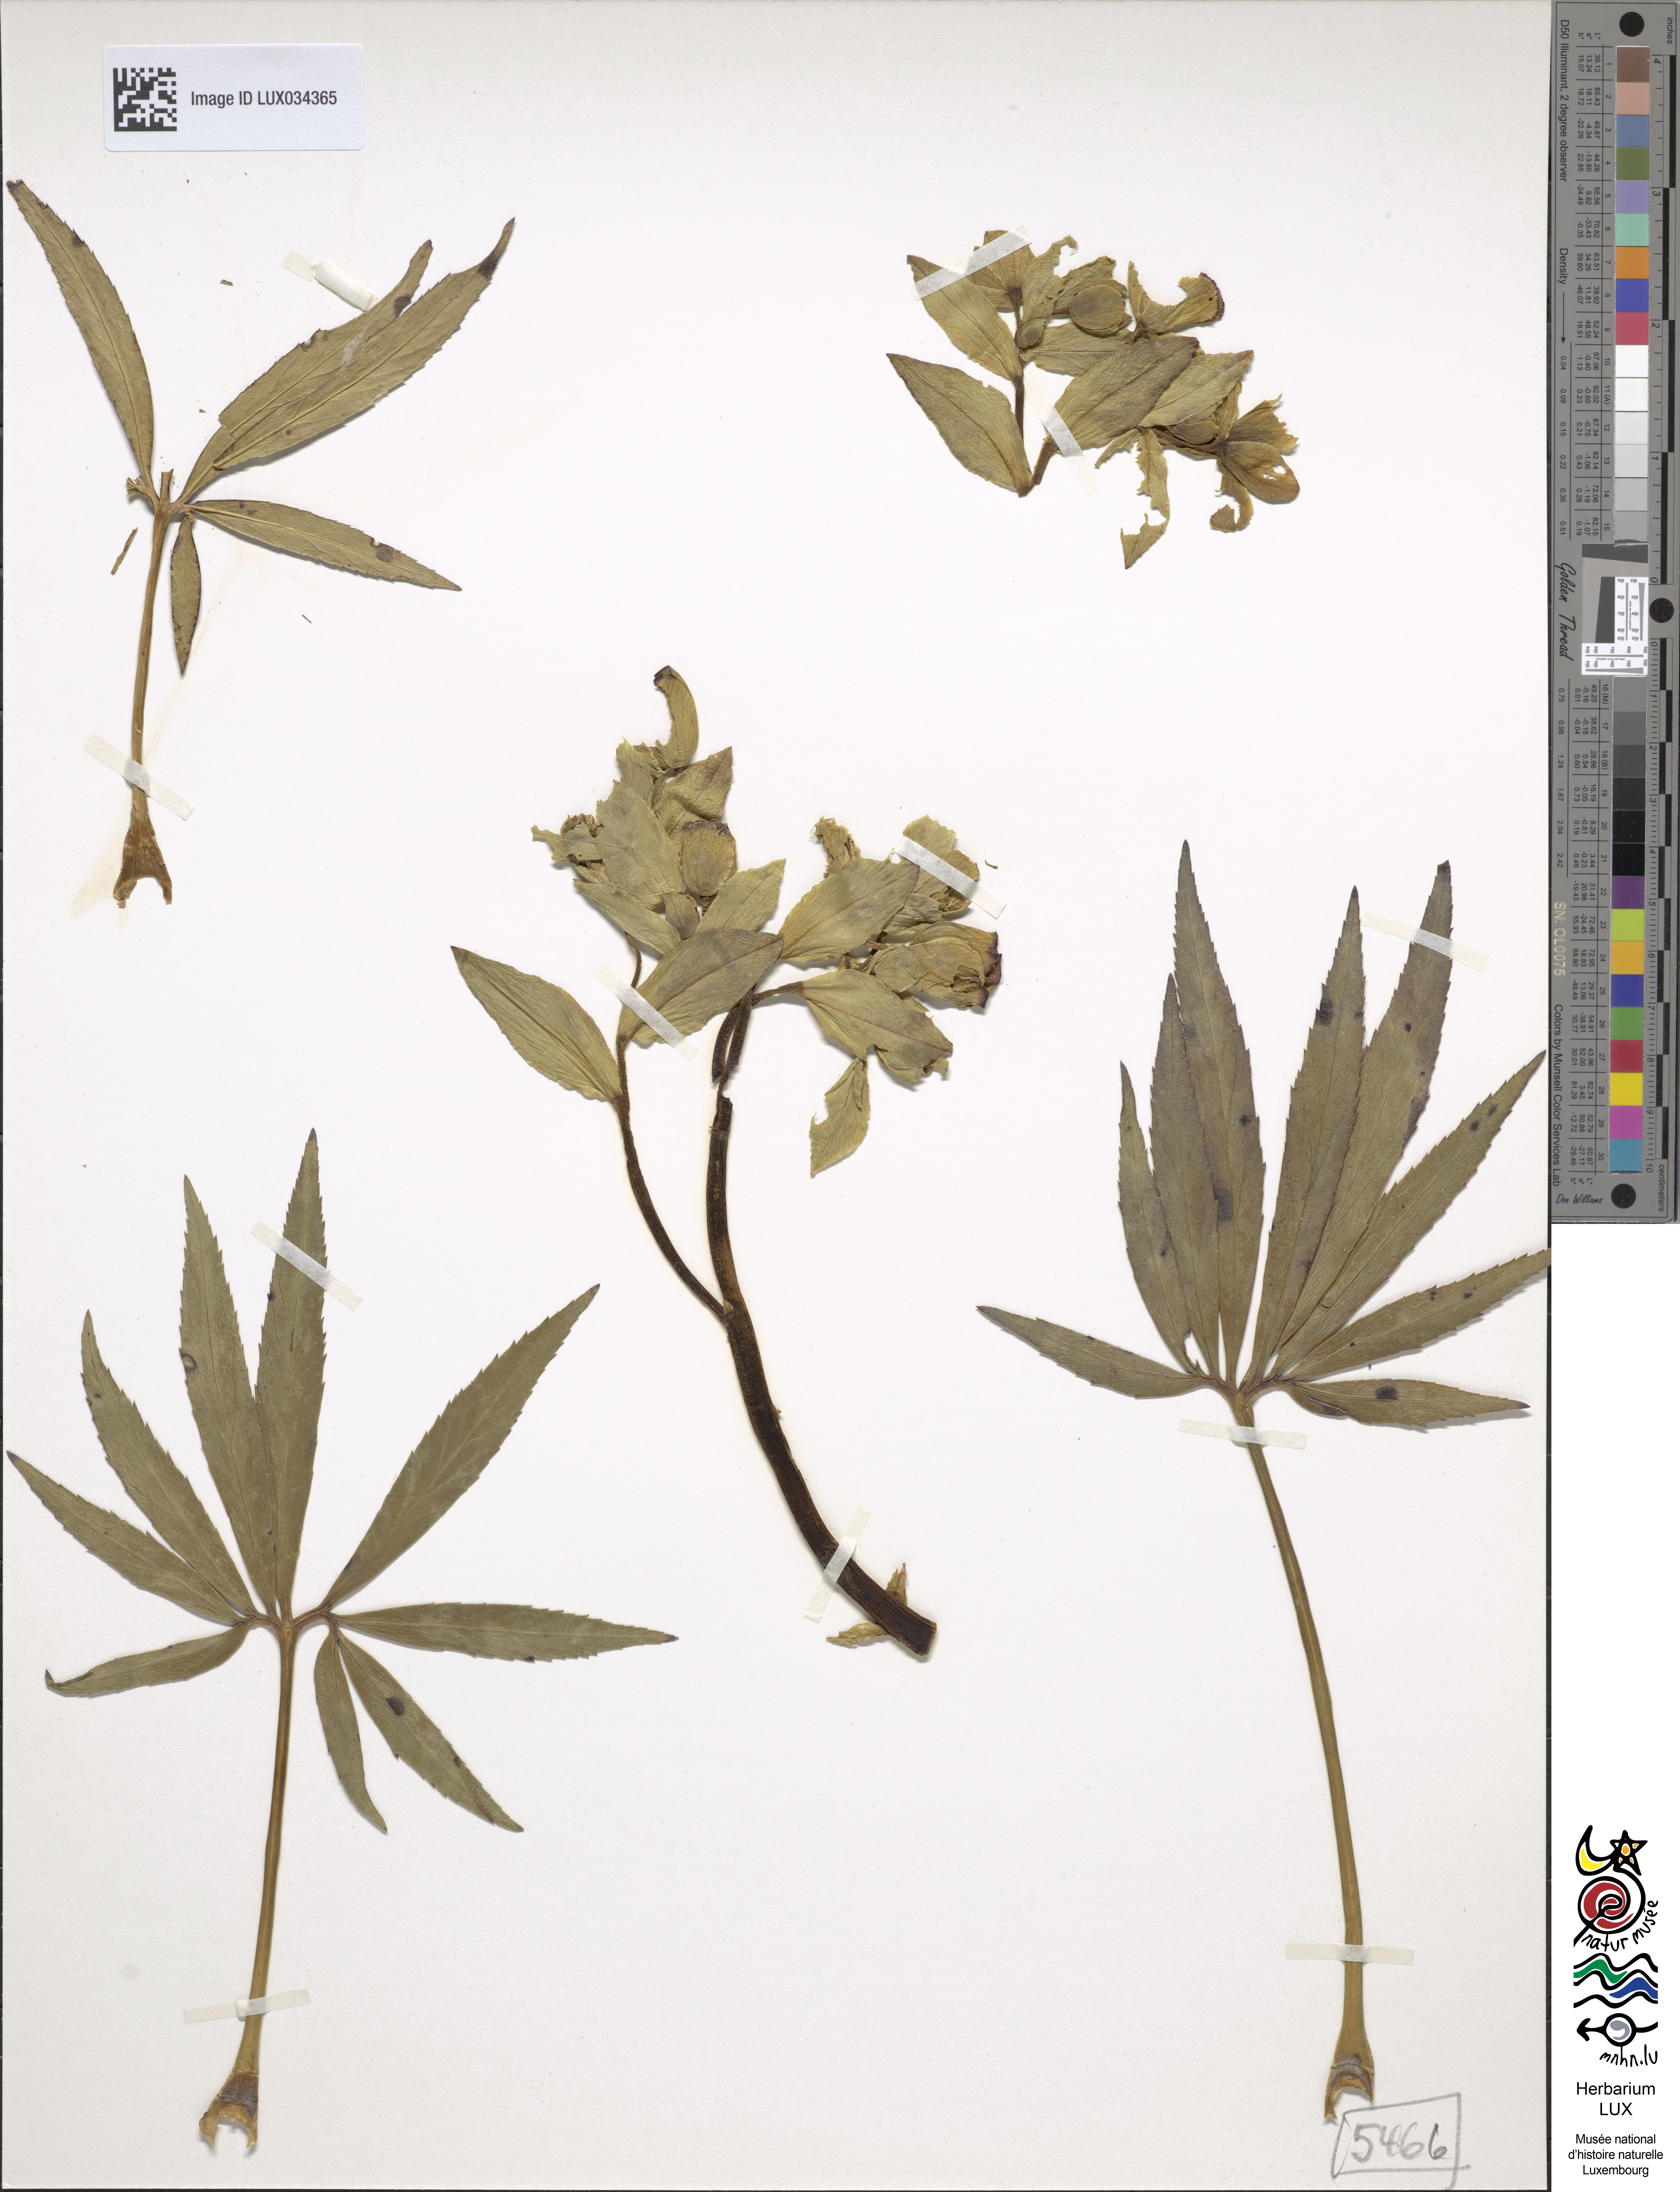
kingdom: Plantae
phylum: Tracheophyta
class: Magnoliopsida
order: Ranunculales
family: Ranunculaceae
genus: Helleborus
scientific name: Helleborus foetidus
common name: Stinking hellebore
